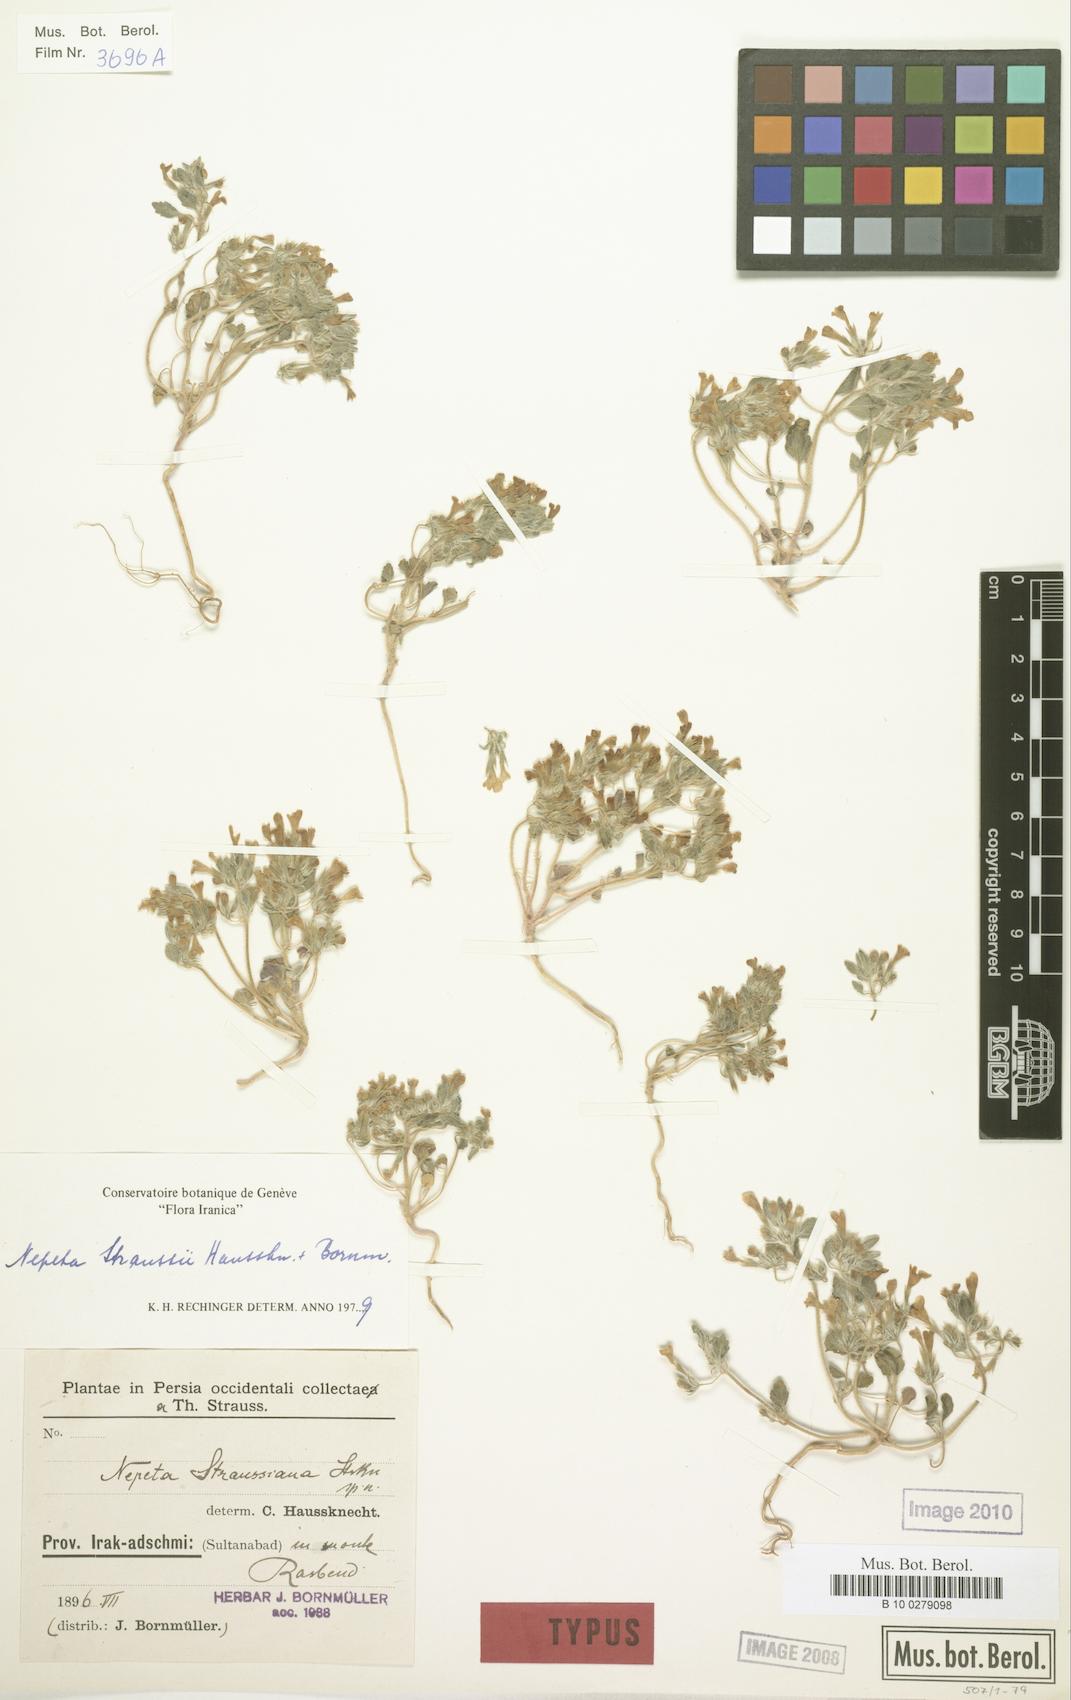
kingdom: Plantae
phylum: Tracheophyta
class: Magnoliopsida
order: Lamiales
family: Lamiaceae
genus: Nepeta
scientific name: Nepeta straussii
